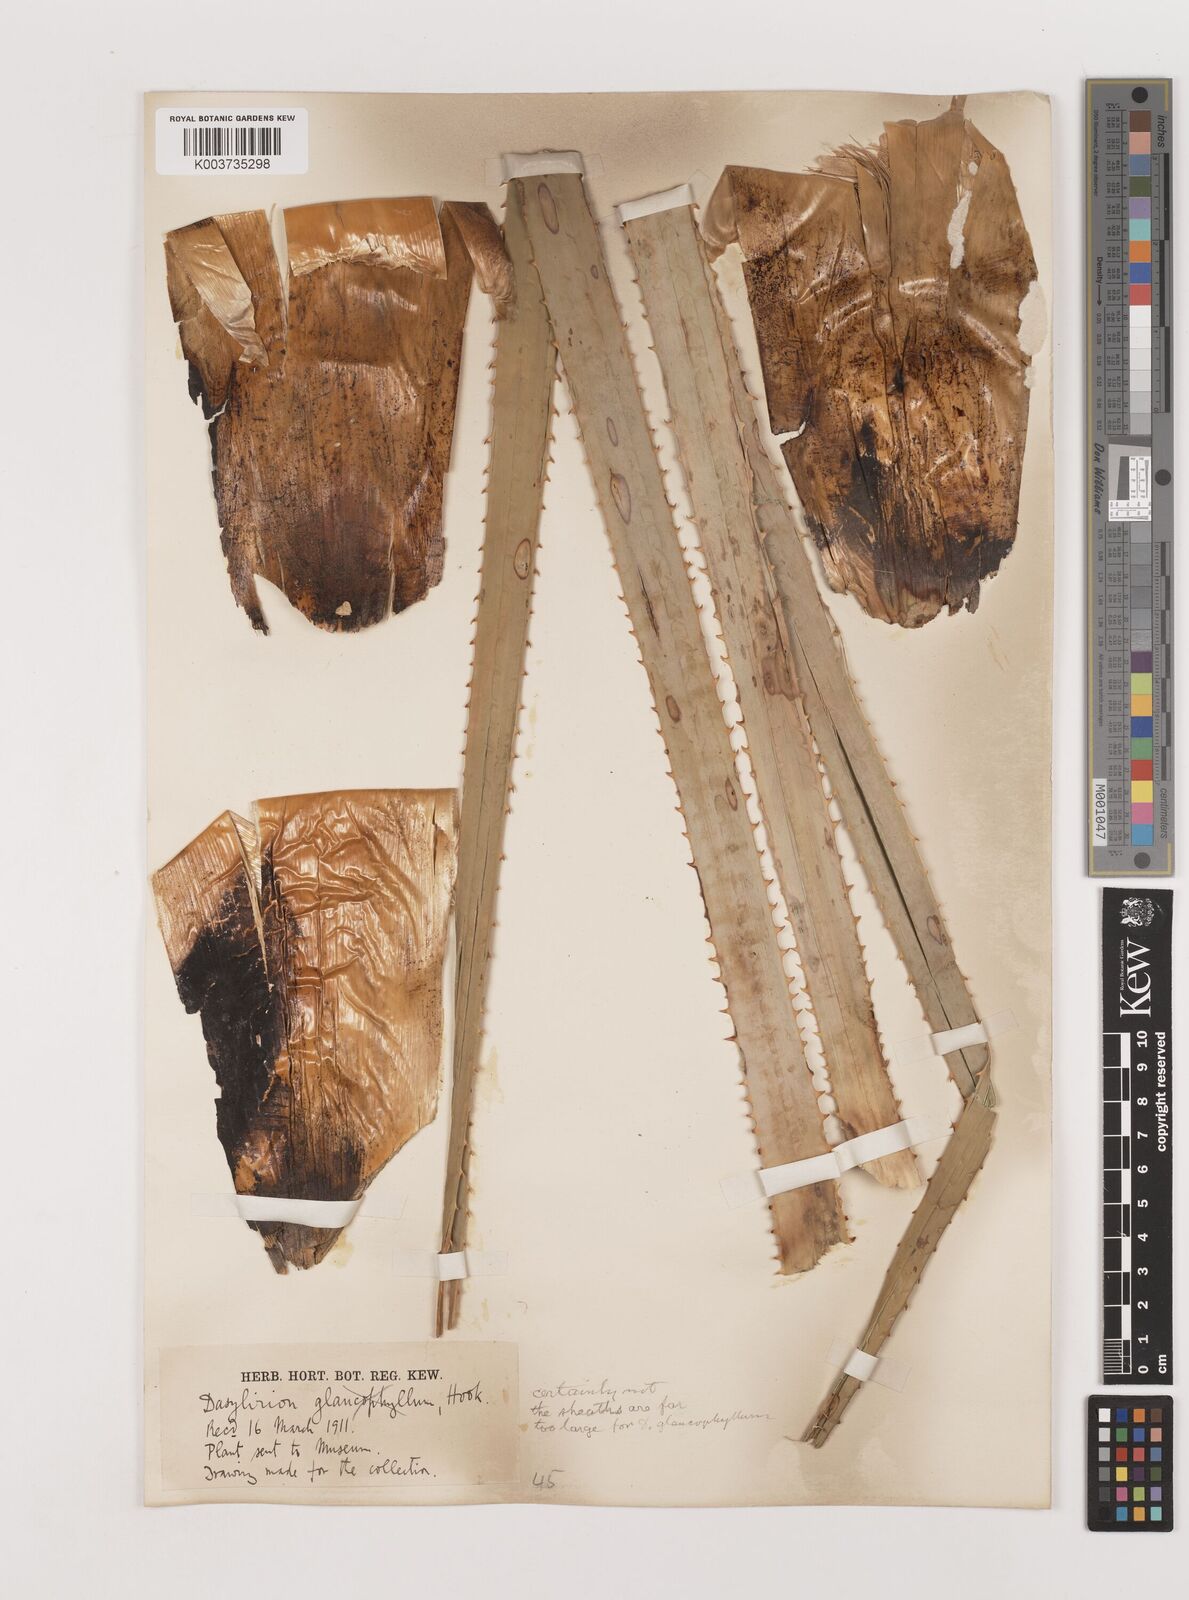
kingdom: Plantae
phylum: Tracheophyta
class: Liliopsida
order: Asparagales
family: Asparagaceae
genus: Dasylirion
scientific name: Dasylirion glaucophyllum
